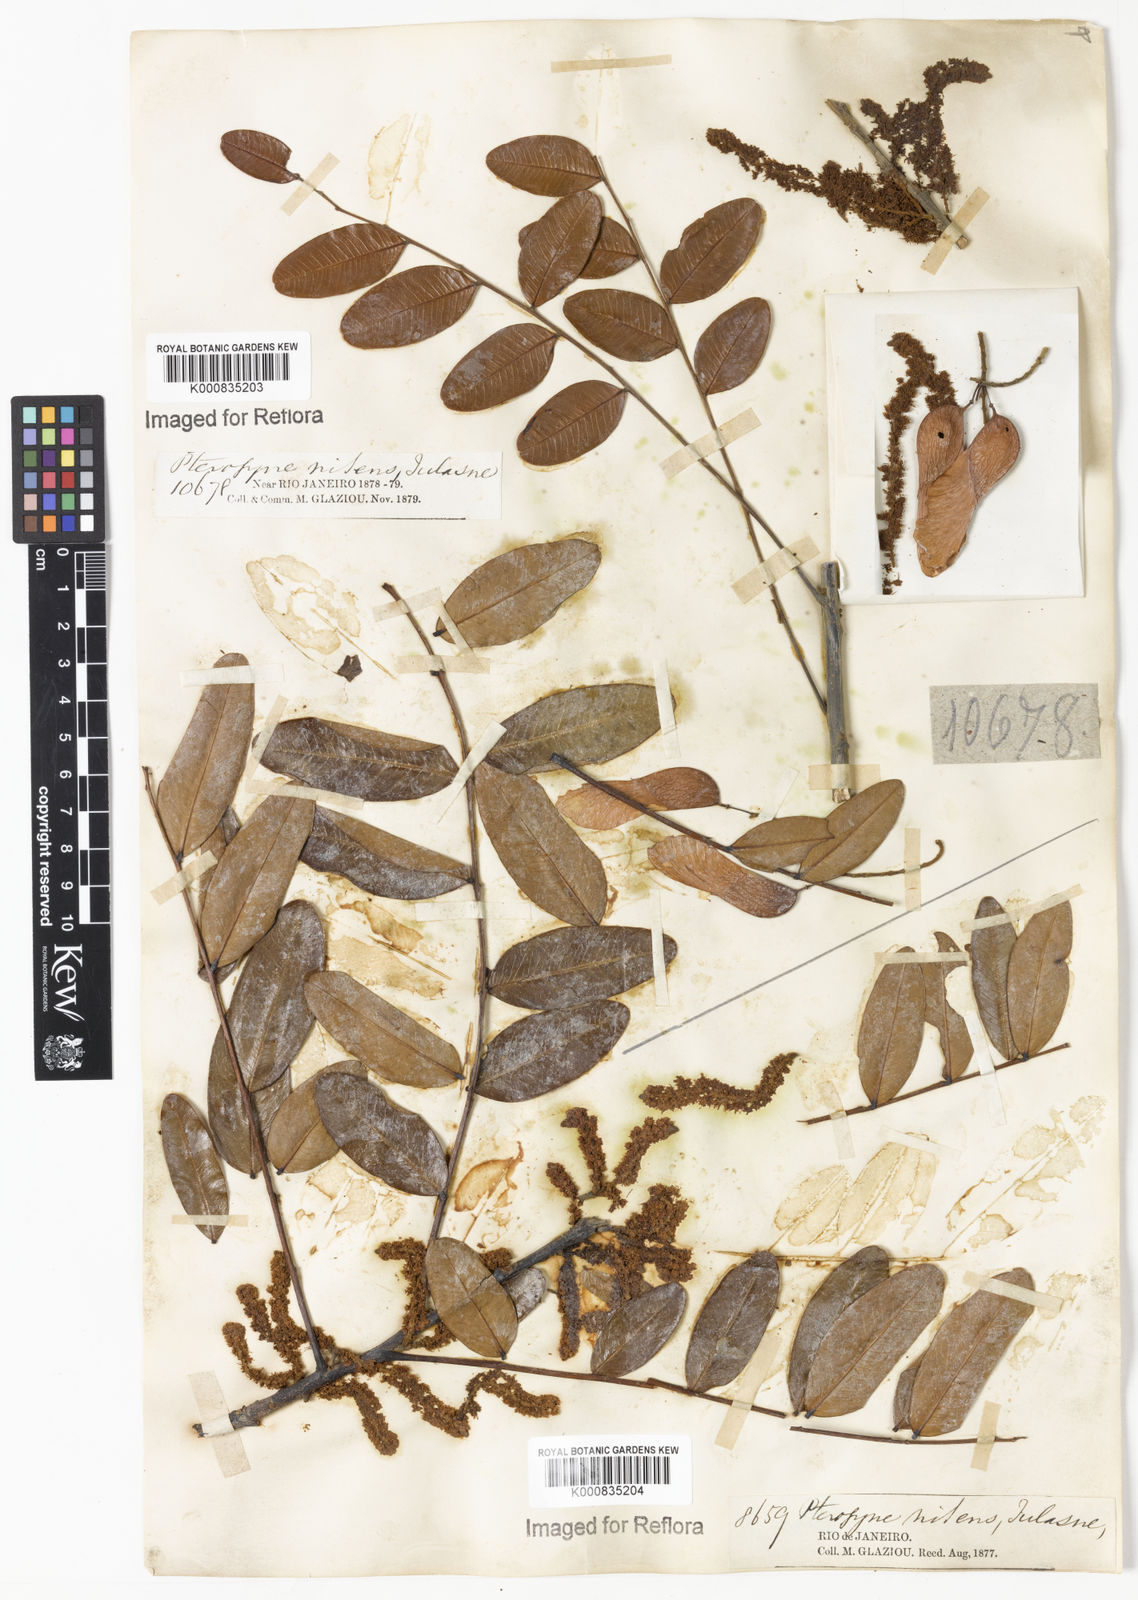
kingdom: Plantae
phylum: Tracheophyta
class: Magnoliopsida
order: Fabales
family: Fabaceae
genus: Pterogyne
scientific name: Pterogyne nitens
